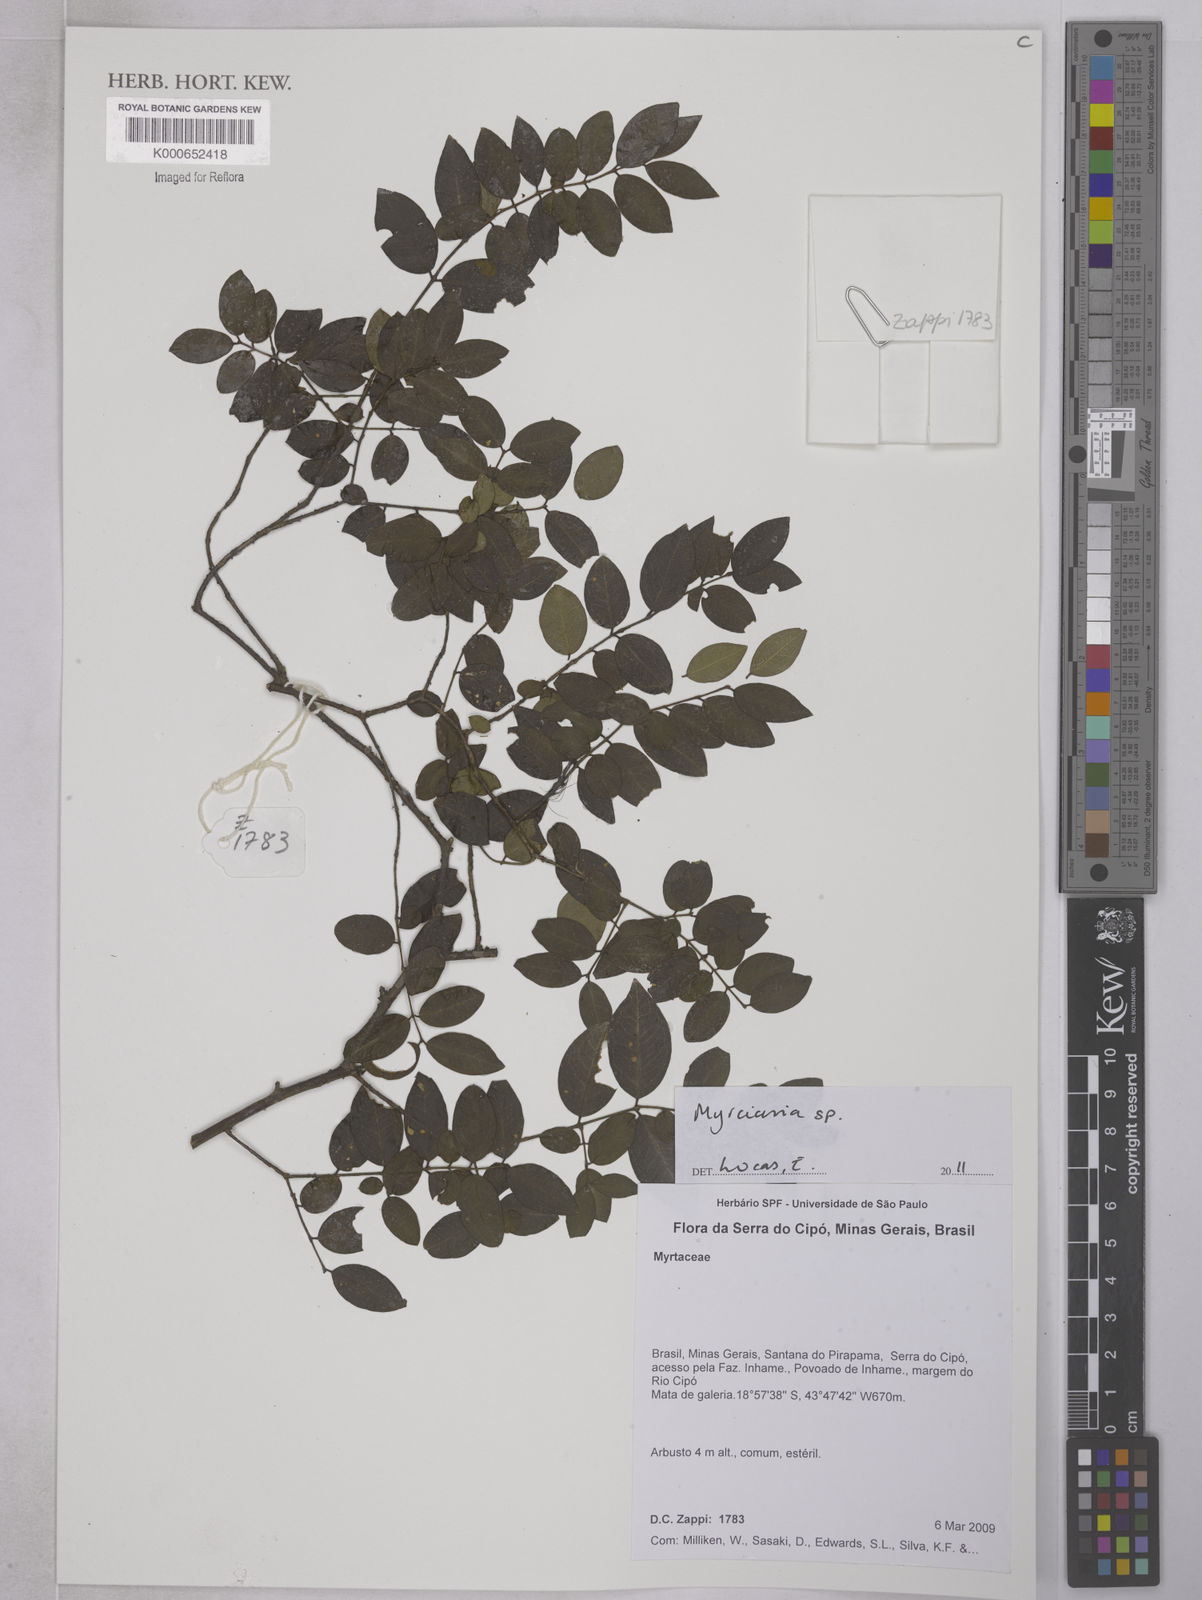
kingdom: Plantae
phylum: Tracheophyta
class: Magnoliopsida
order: Myrtales
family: Myrtaceae
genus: Plinia
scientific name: Plinia
